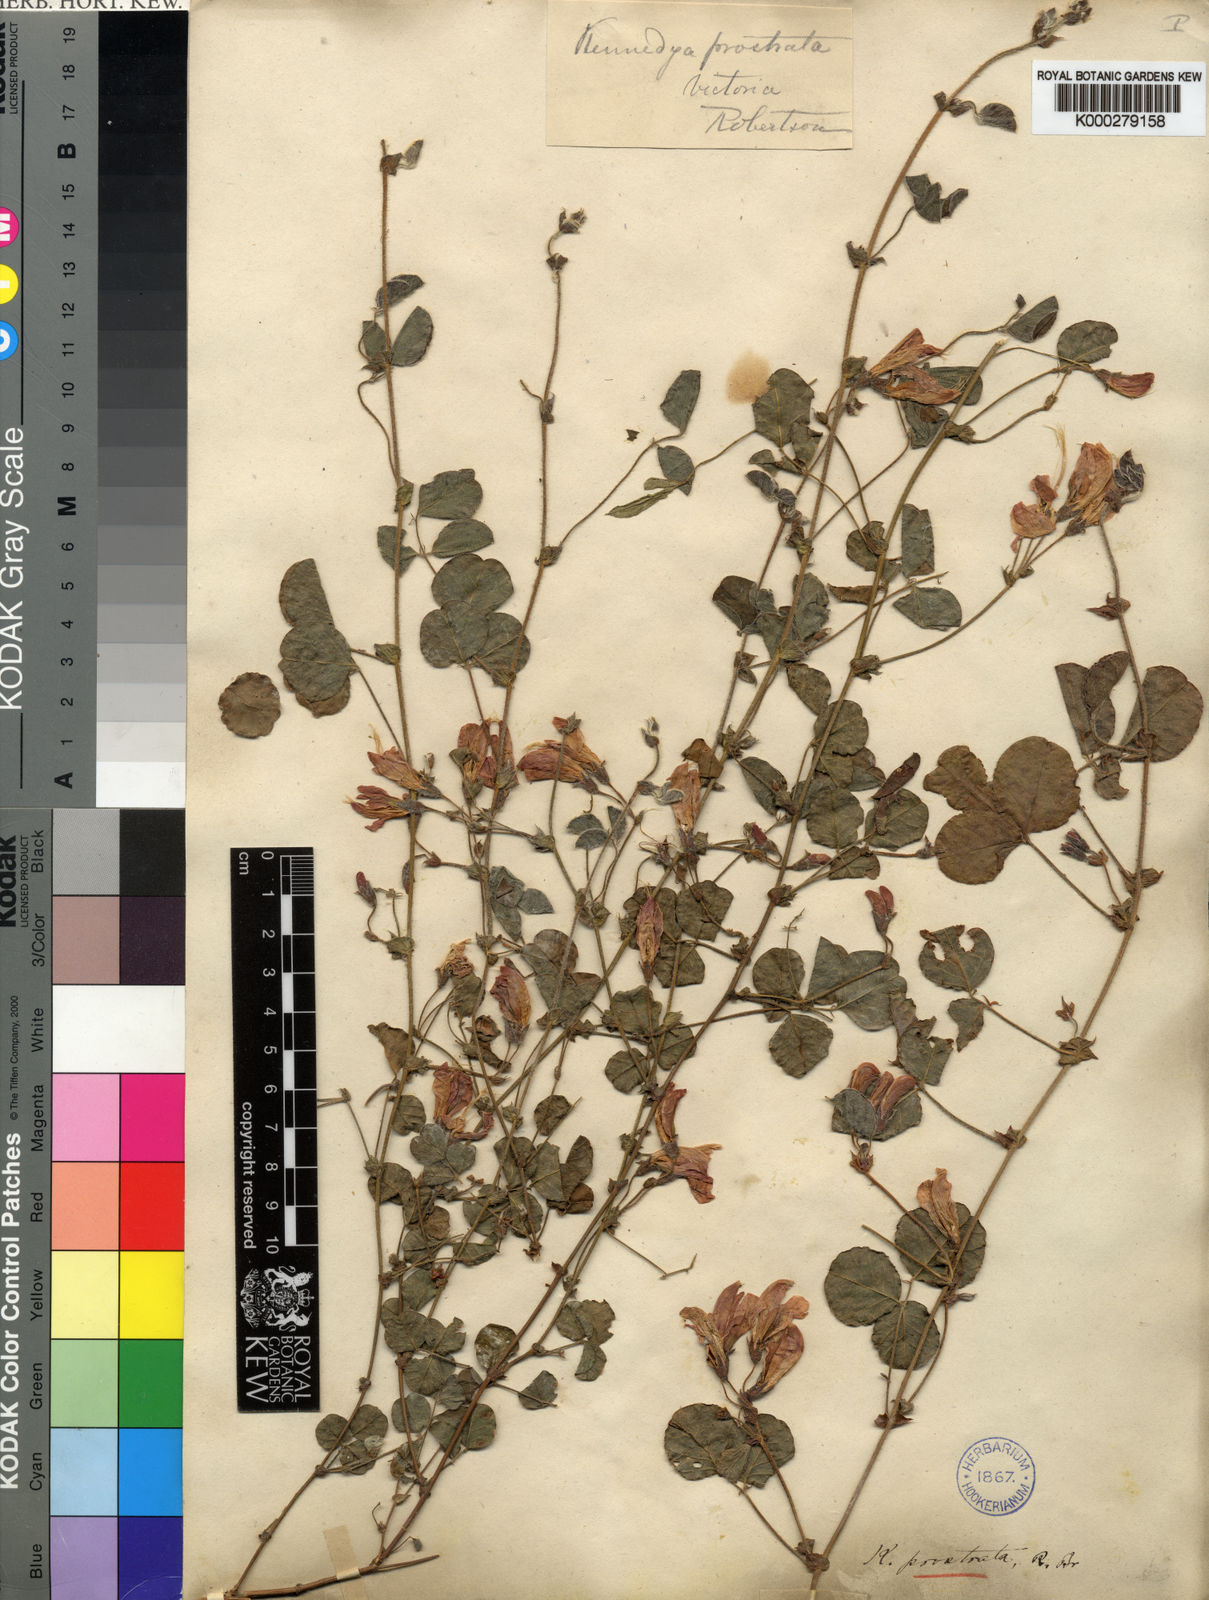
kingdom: Plantae
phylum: Tracheophyta
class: Magnoliopsida
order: Fabales
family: Fabaceae
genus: Kennedia
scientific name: Kennedia prostrata
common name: Running-postman
